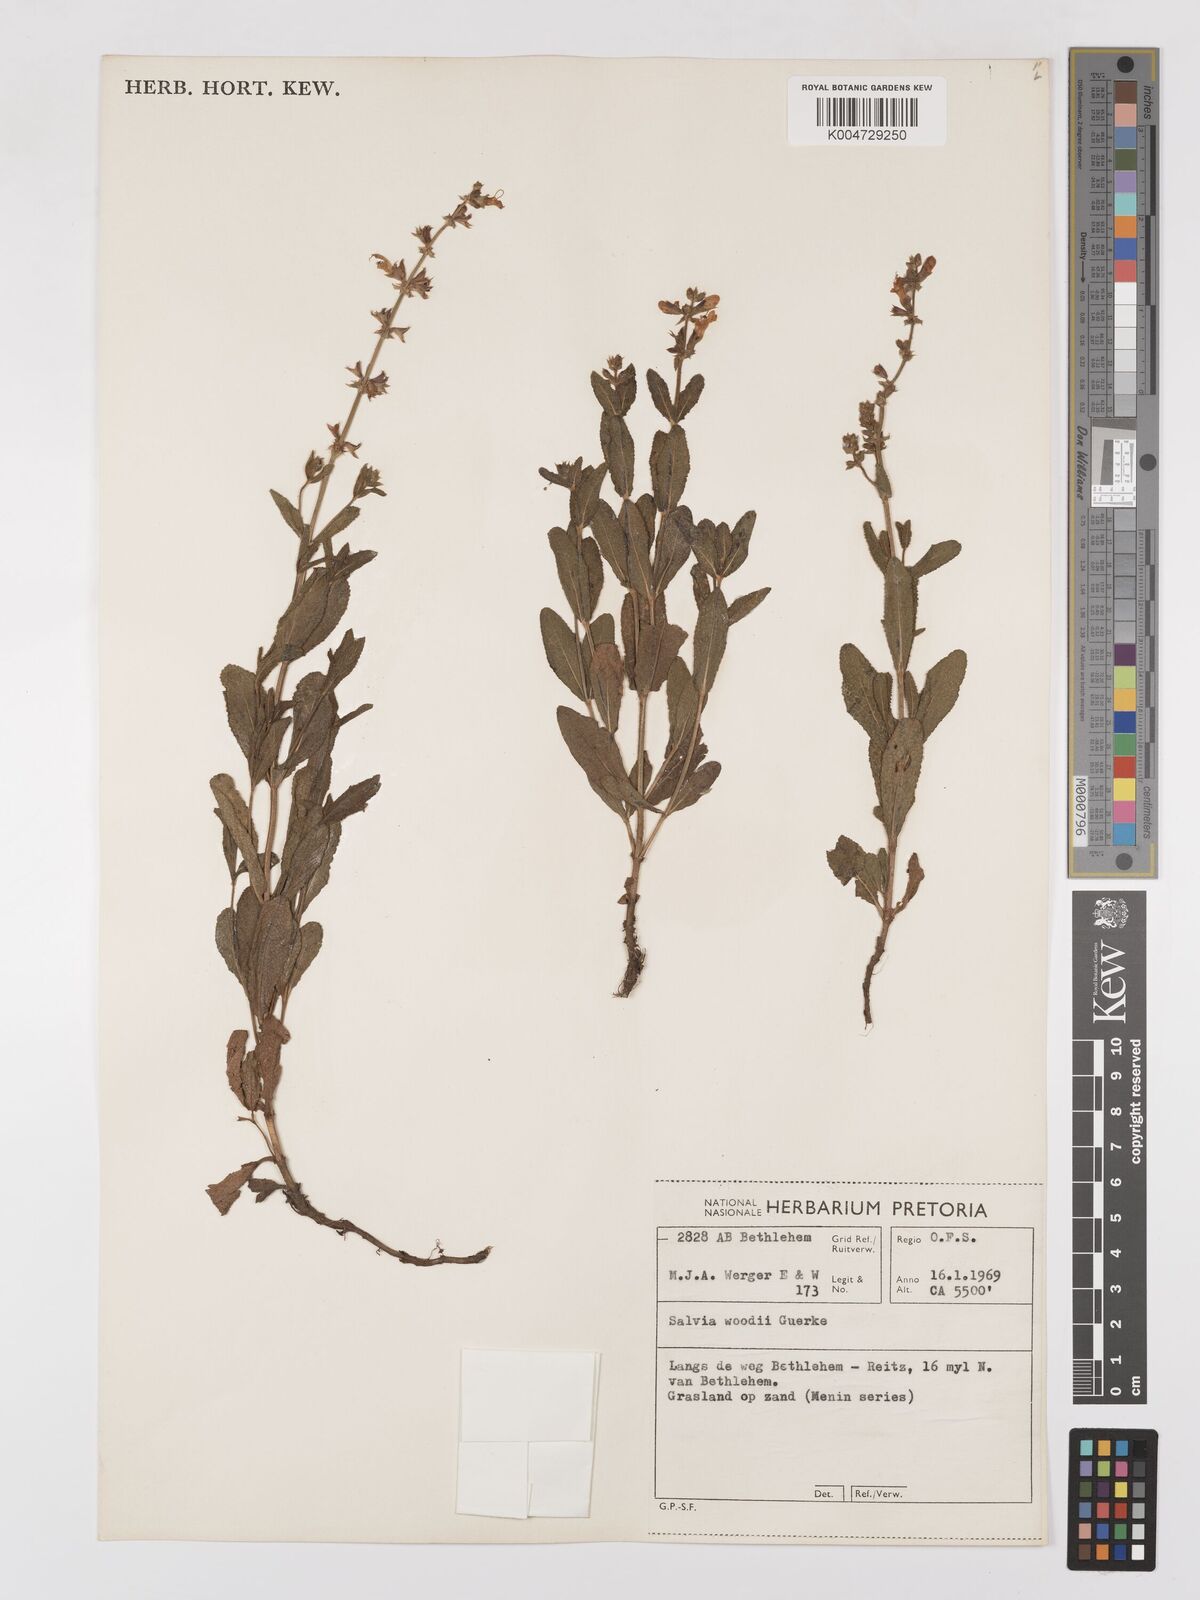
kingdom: Plantae
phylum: Tracheophyta
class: Magnoliopsida
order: Lamiales
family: Lamiaceae
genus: Salvia
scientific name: Salvia repens
